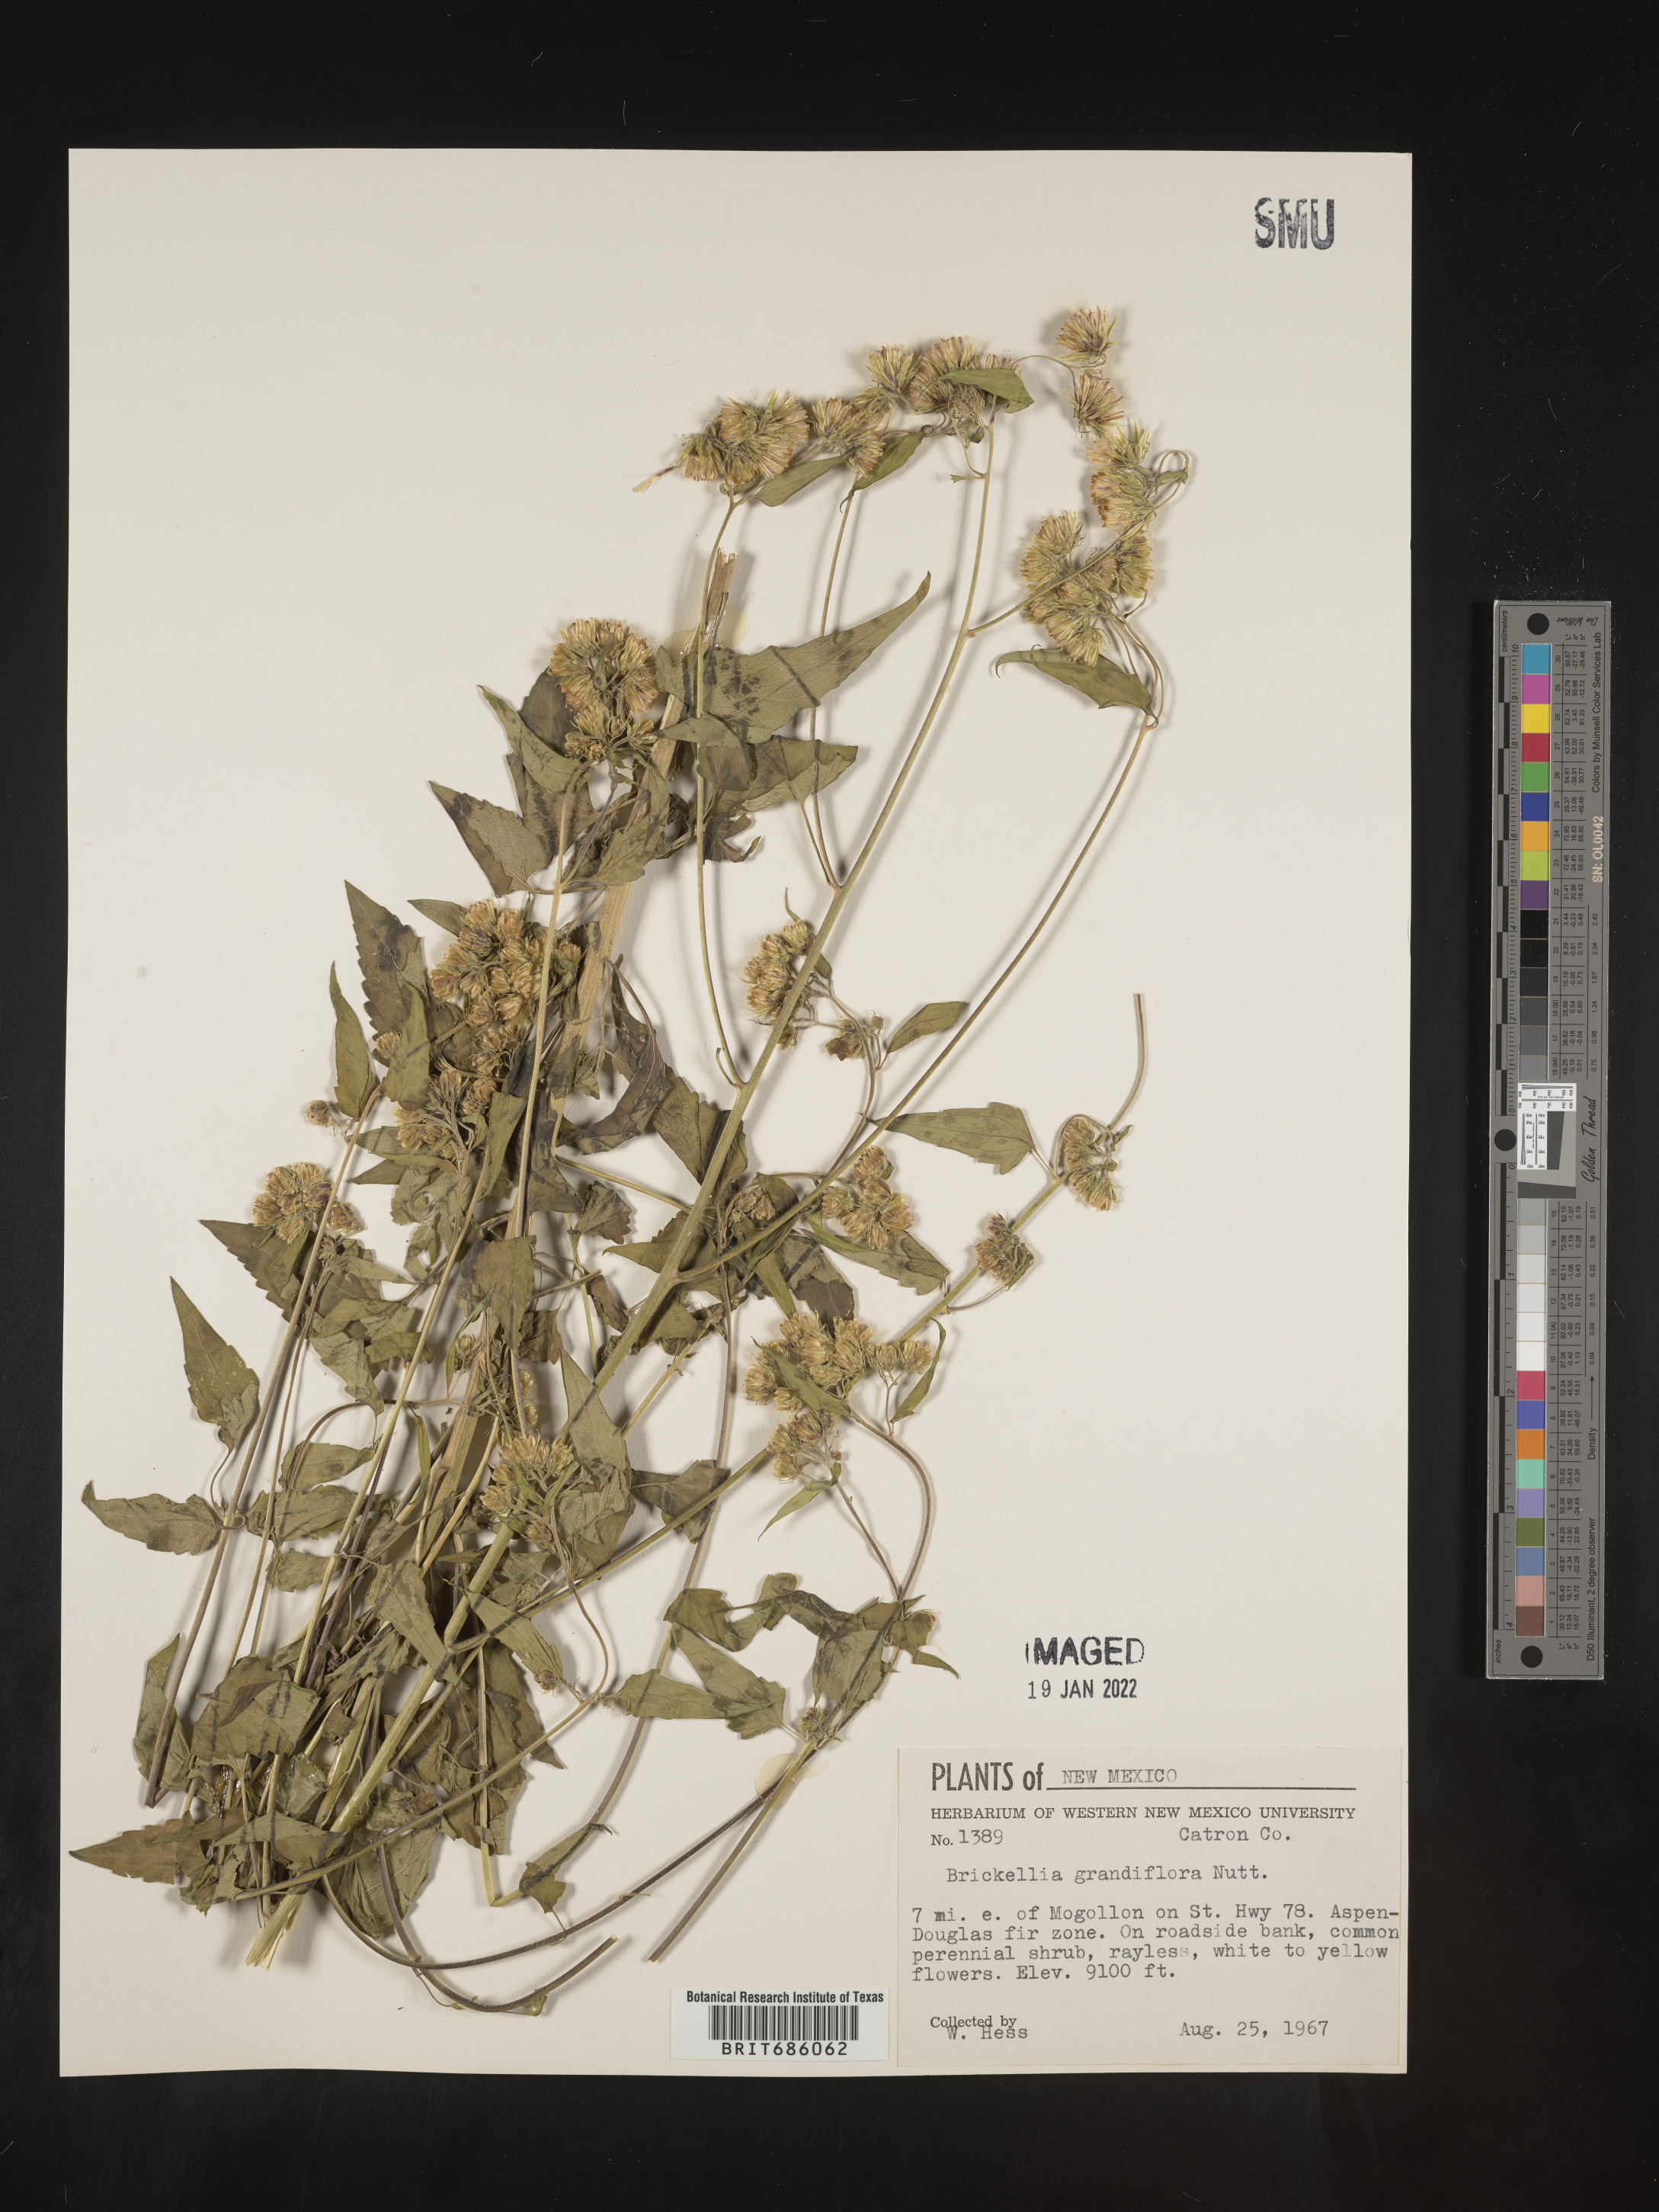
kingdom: Plantae
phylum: Tracheophyta
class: Magnoliopsida
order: Asterales
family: Asteraceae
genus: Brickellia
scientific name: Brickellia grandiflora
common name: Large-flowered brickellia
